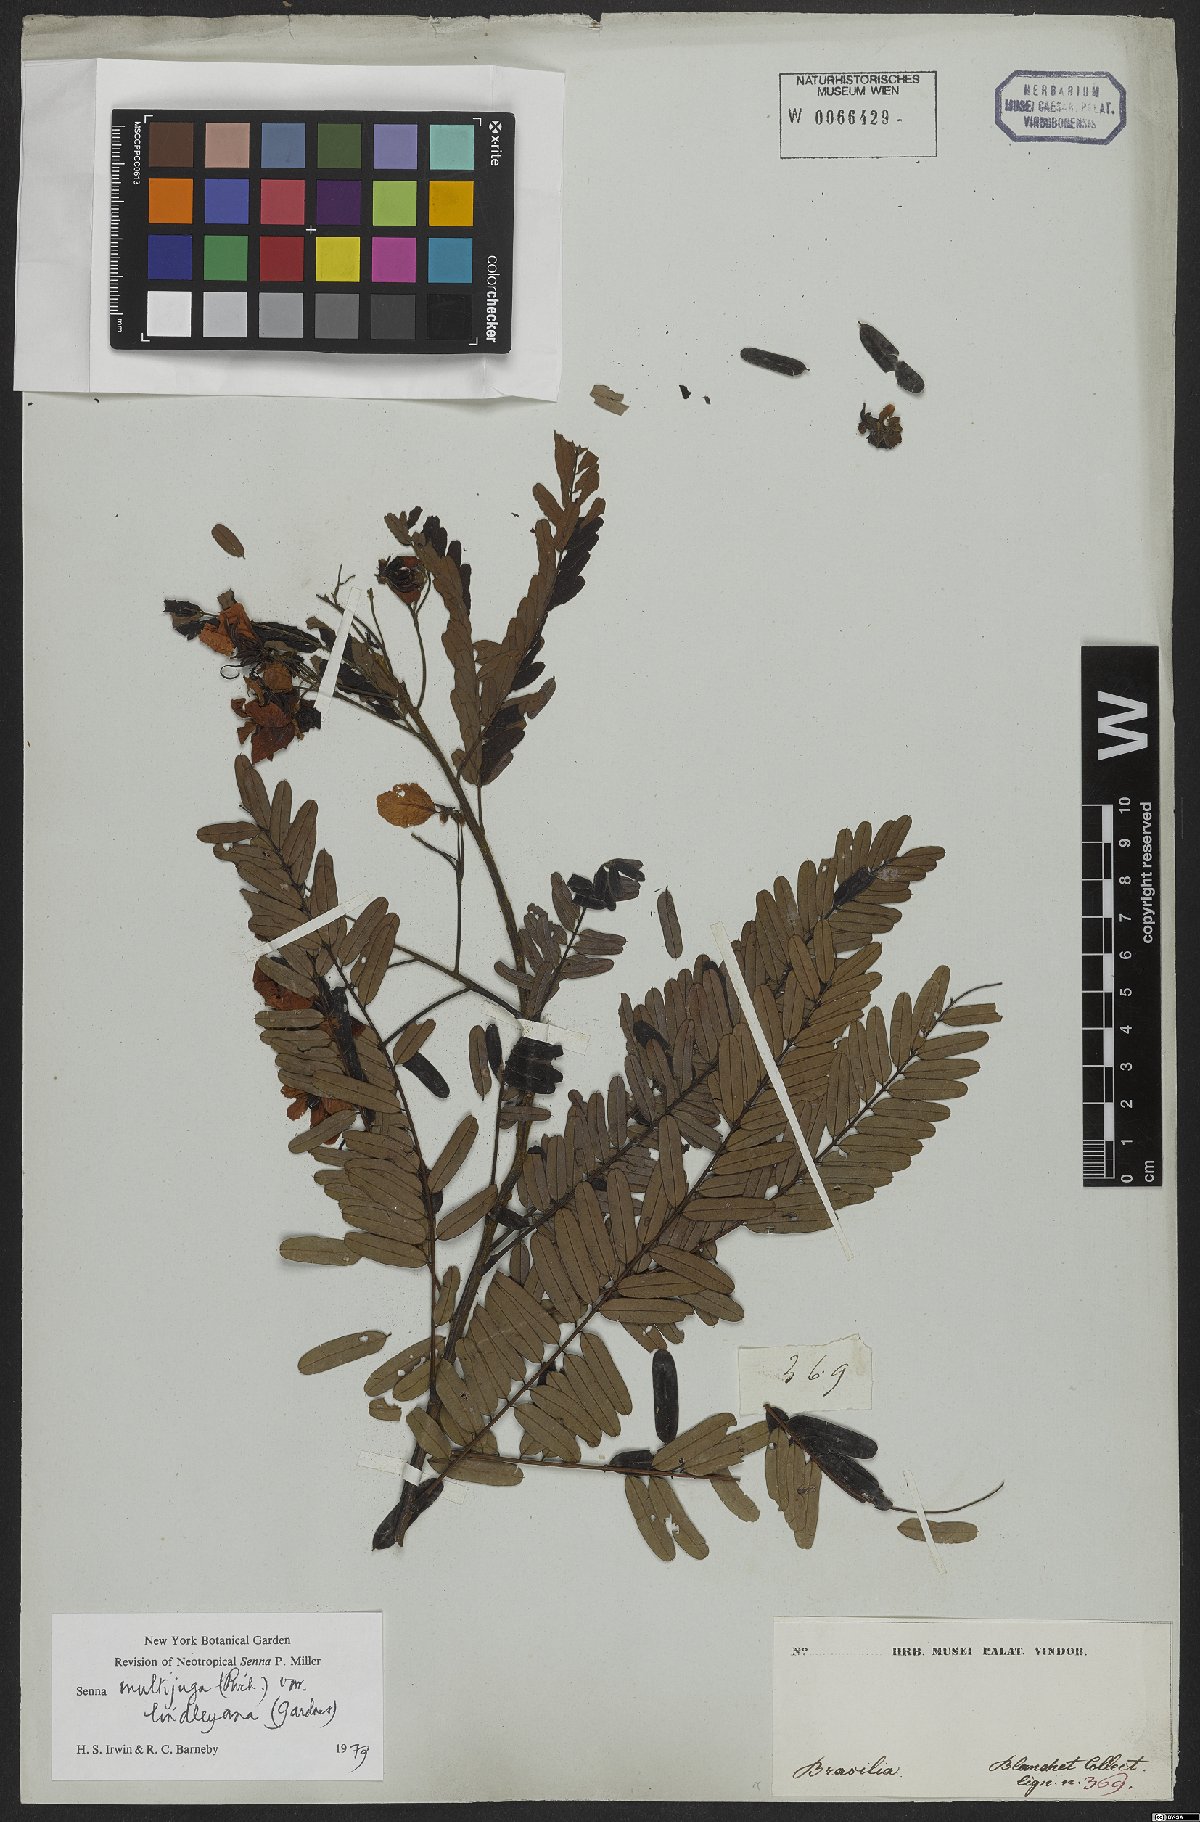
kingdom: Plantae
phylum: Tracheophyta
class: Magnoliopsida
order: Fabales
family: Fabaceae
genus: Senna
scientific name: Senna multijuga
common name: False sicklepod
